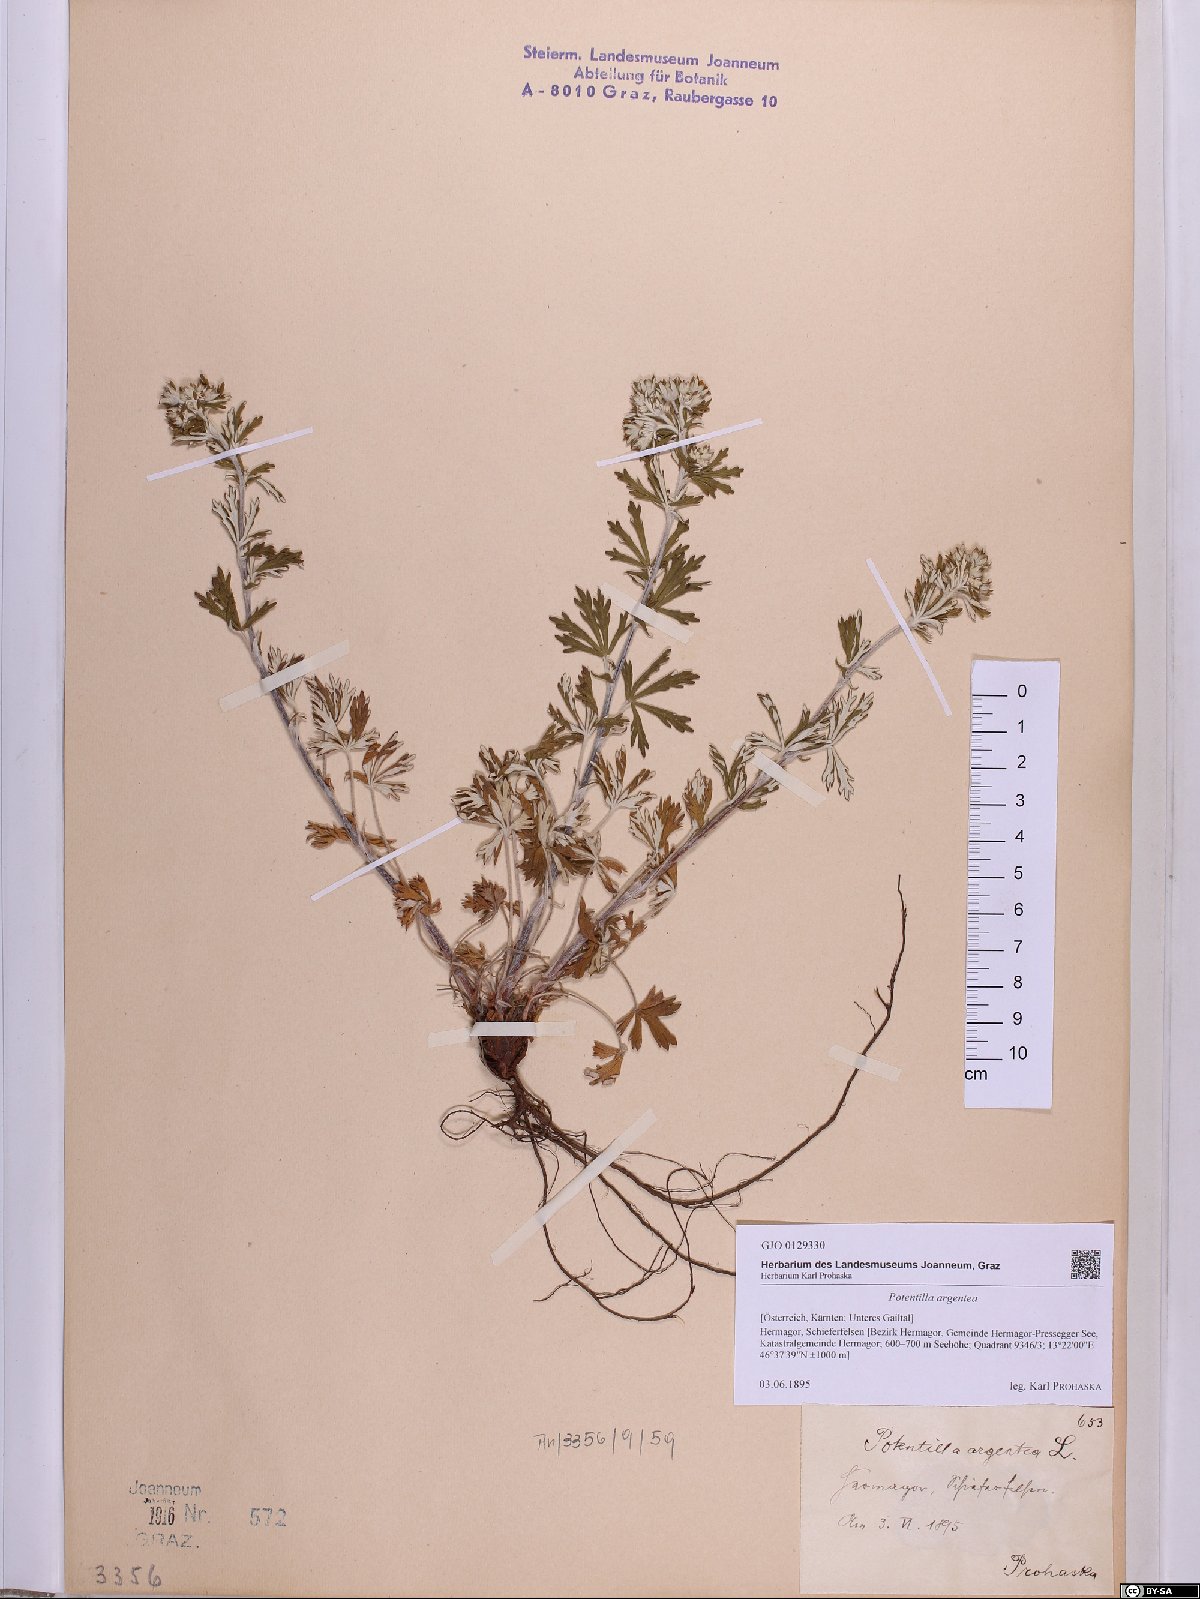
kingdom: Plantae
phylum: Tracheophyta
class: Magnoliopsida
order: Rosales
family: Rosaceae
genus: Potentilla
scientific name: Potentilla argentea
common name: Hoary cinquefoil
